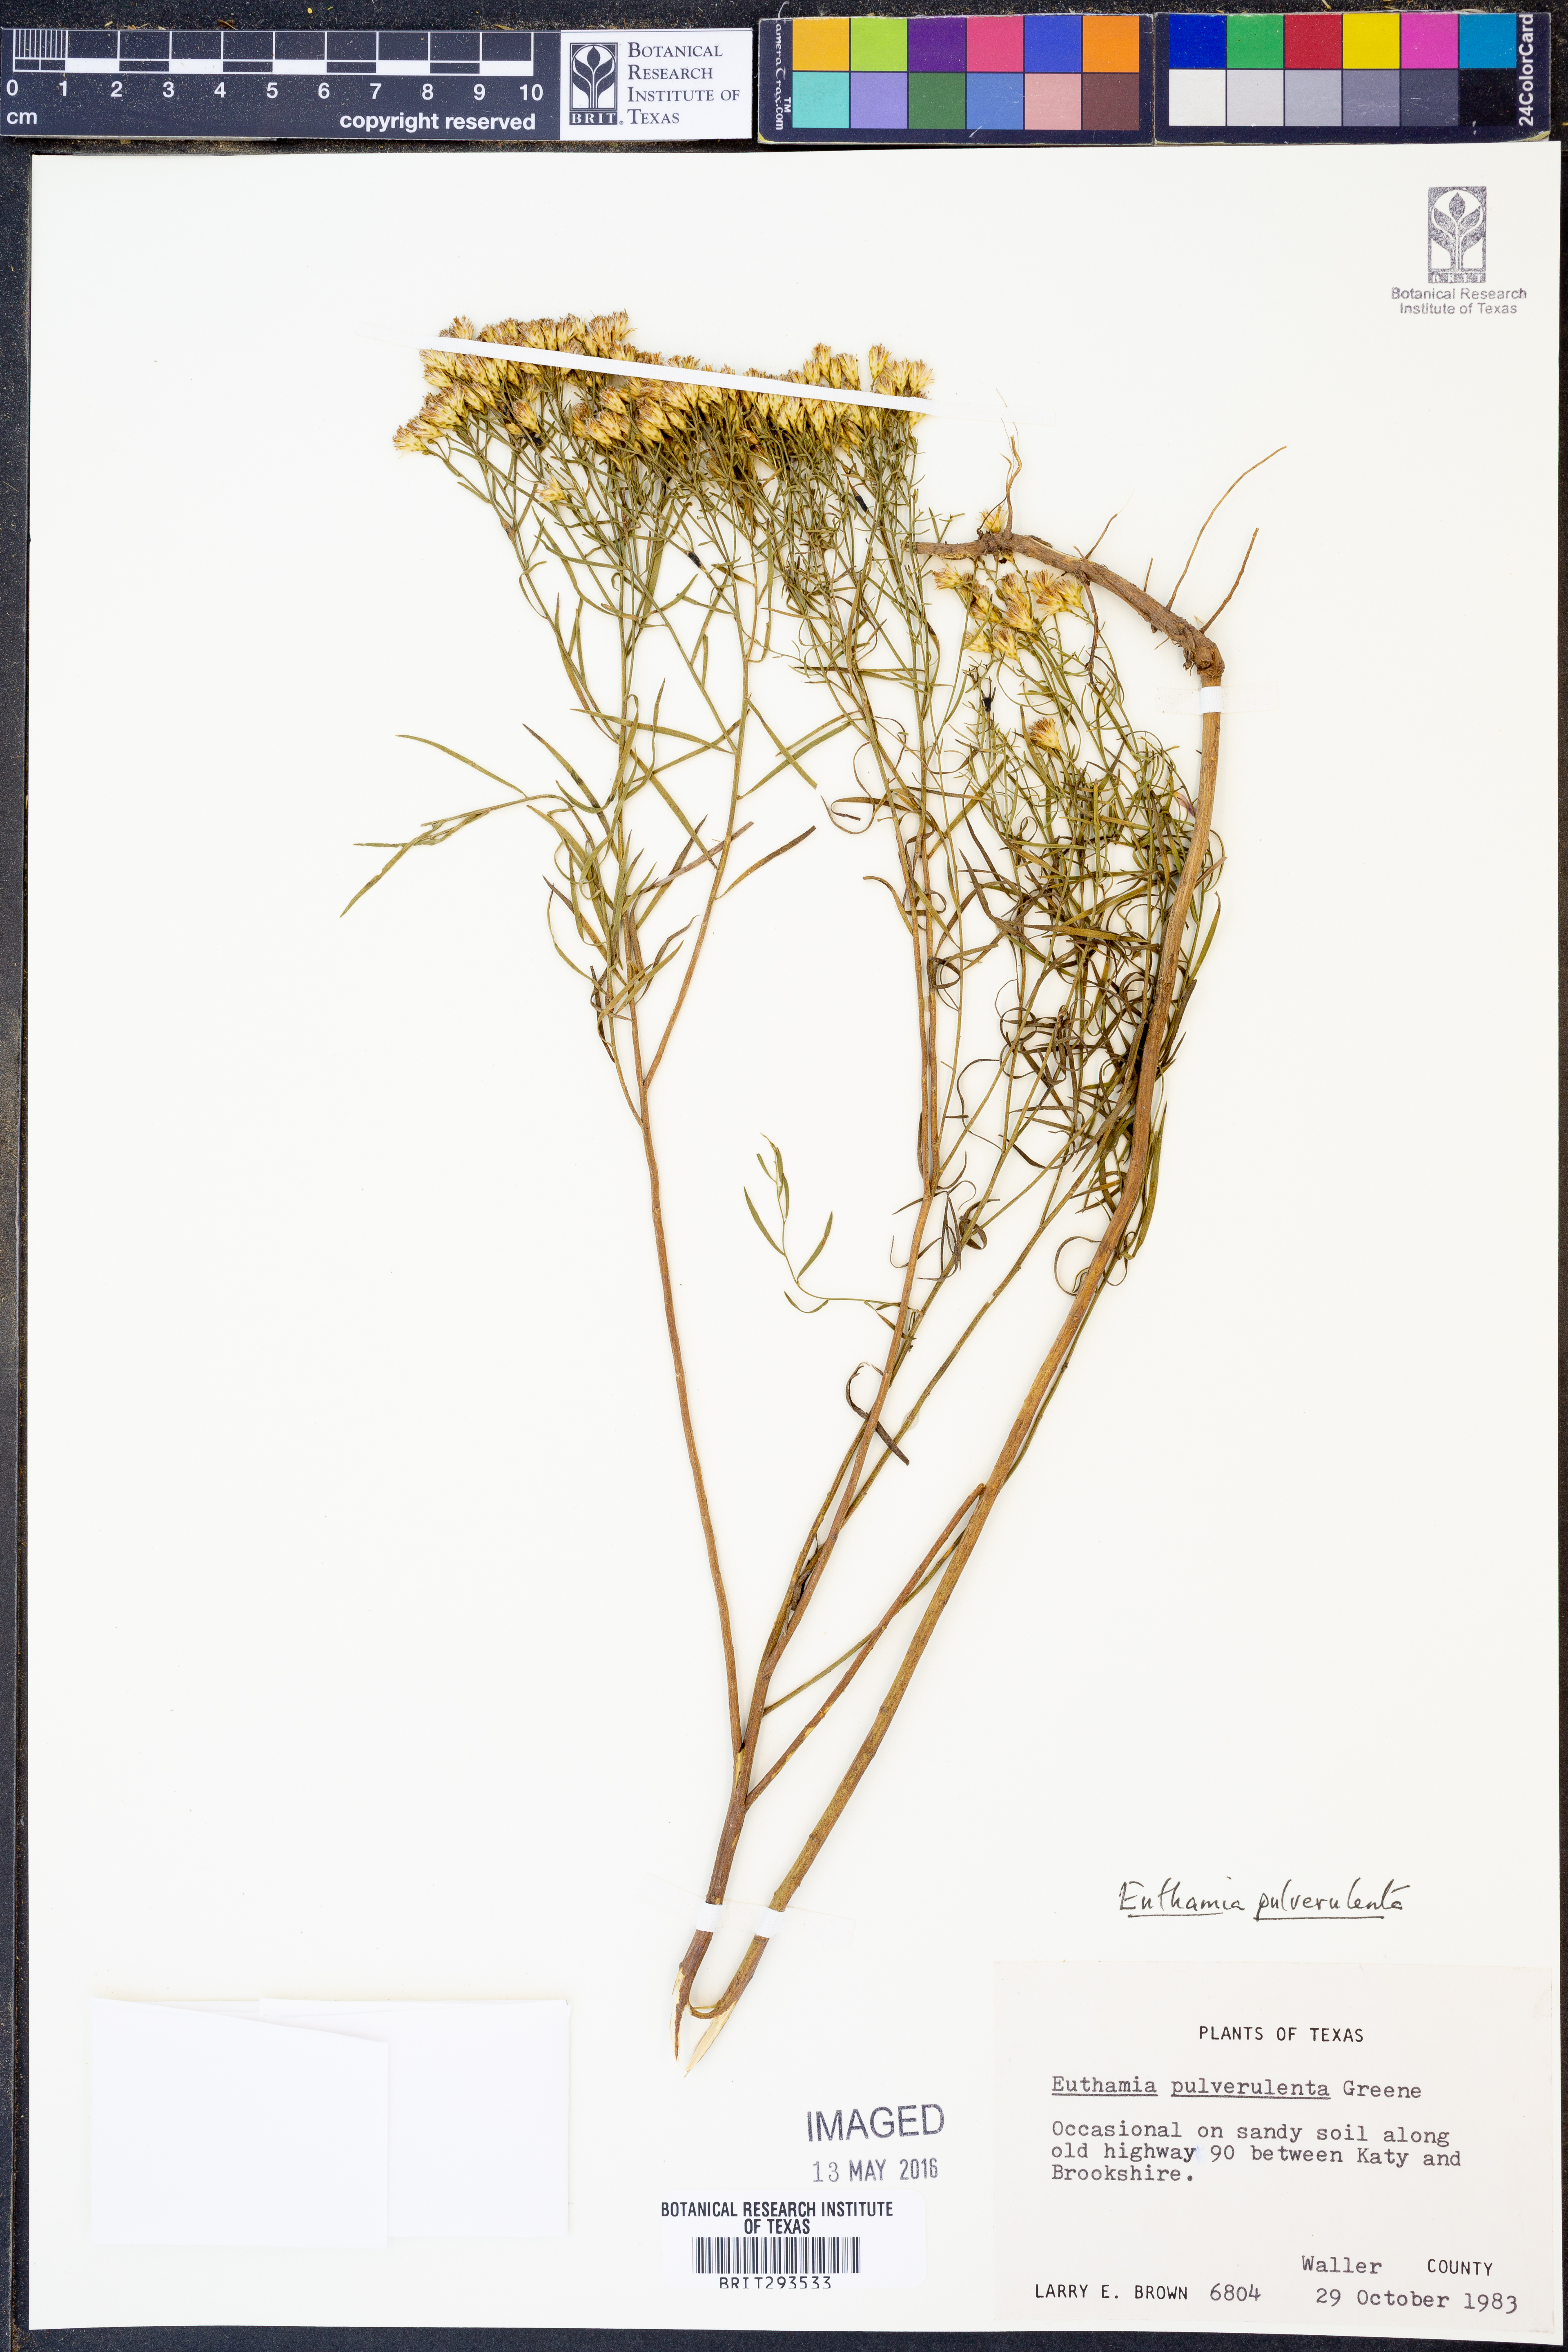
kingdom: Plantae
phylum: Tracheophyta
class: Magnoliopsida
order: Asterales
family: Asteraceae
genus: Euthamia
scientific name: Euthamia pulverulenta
